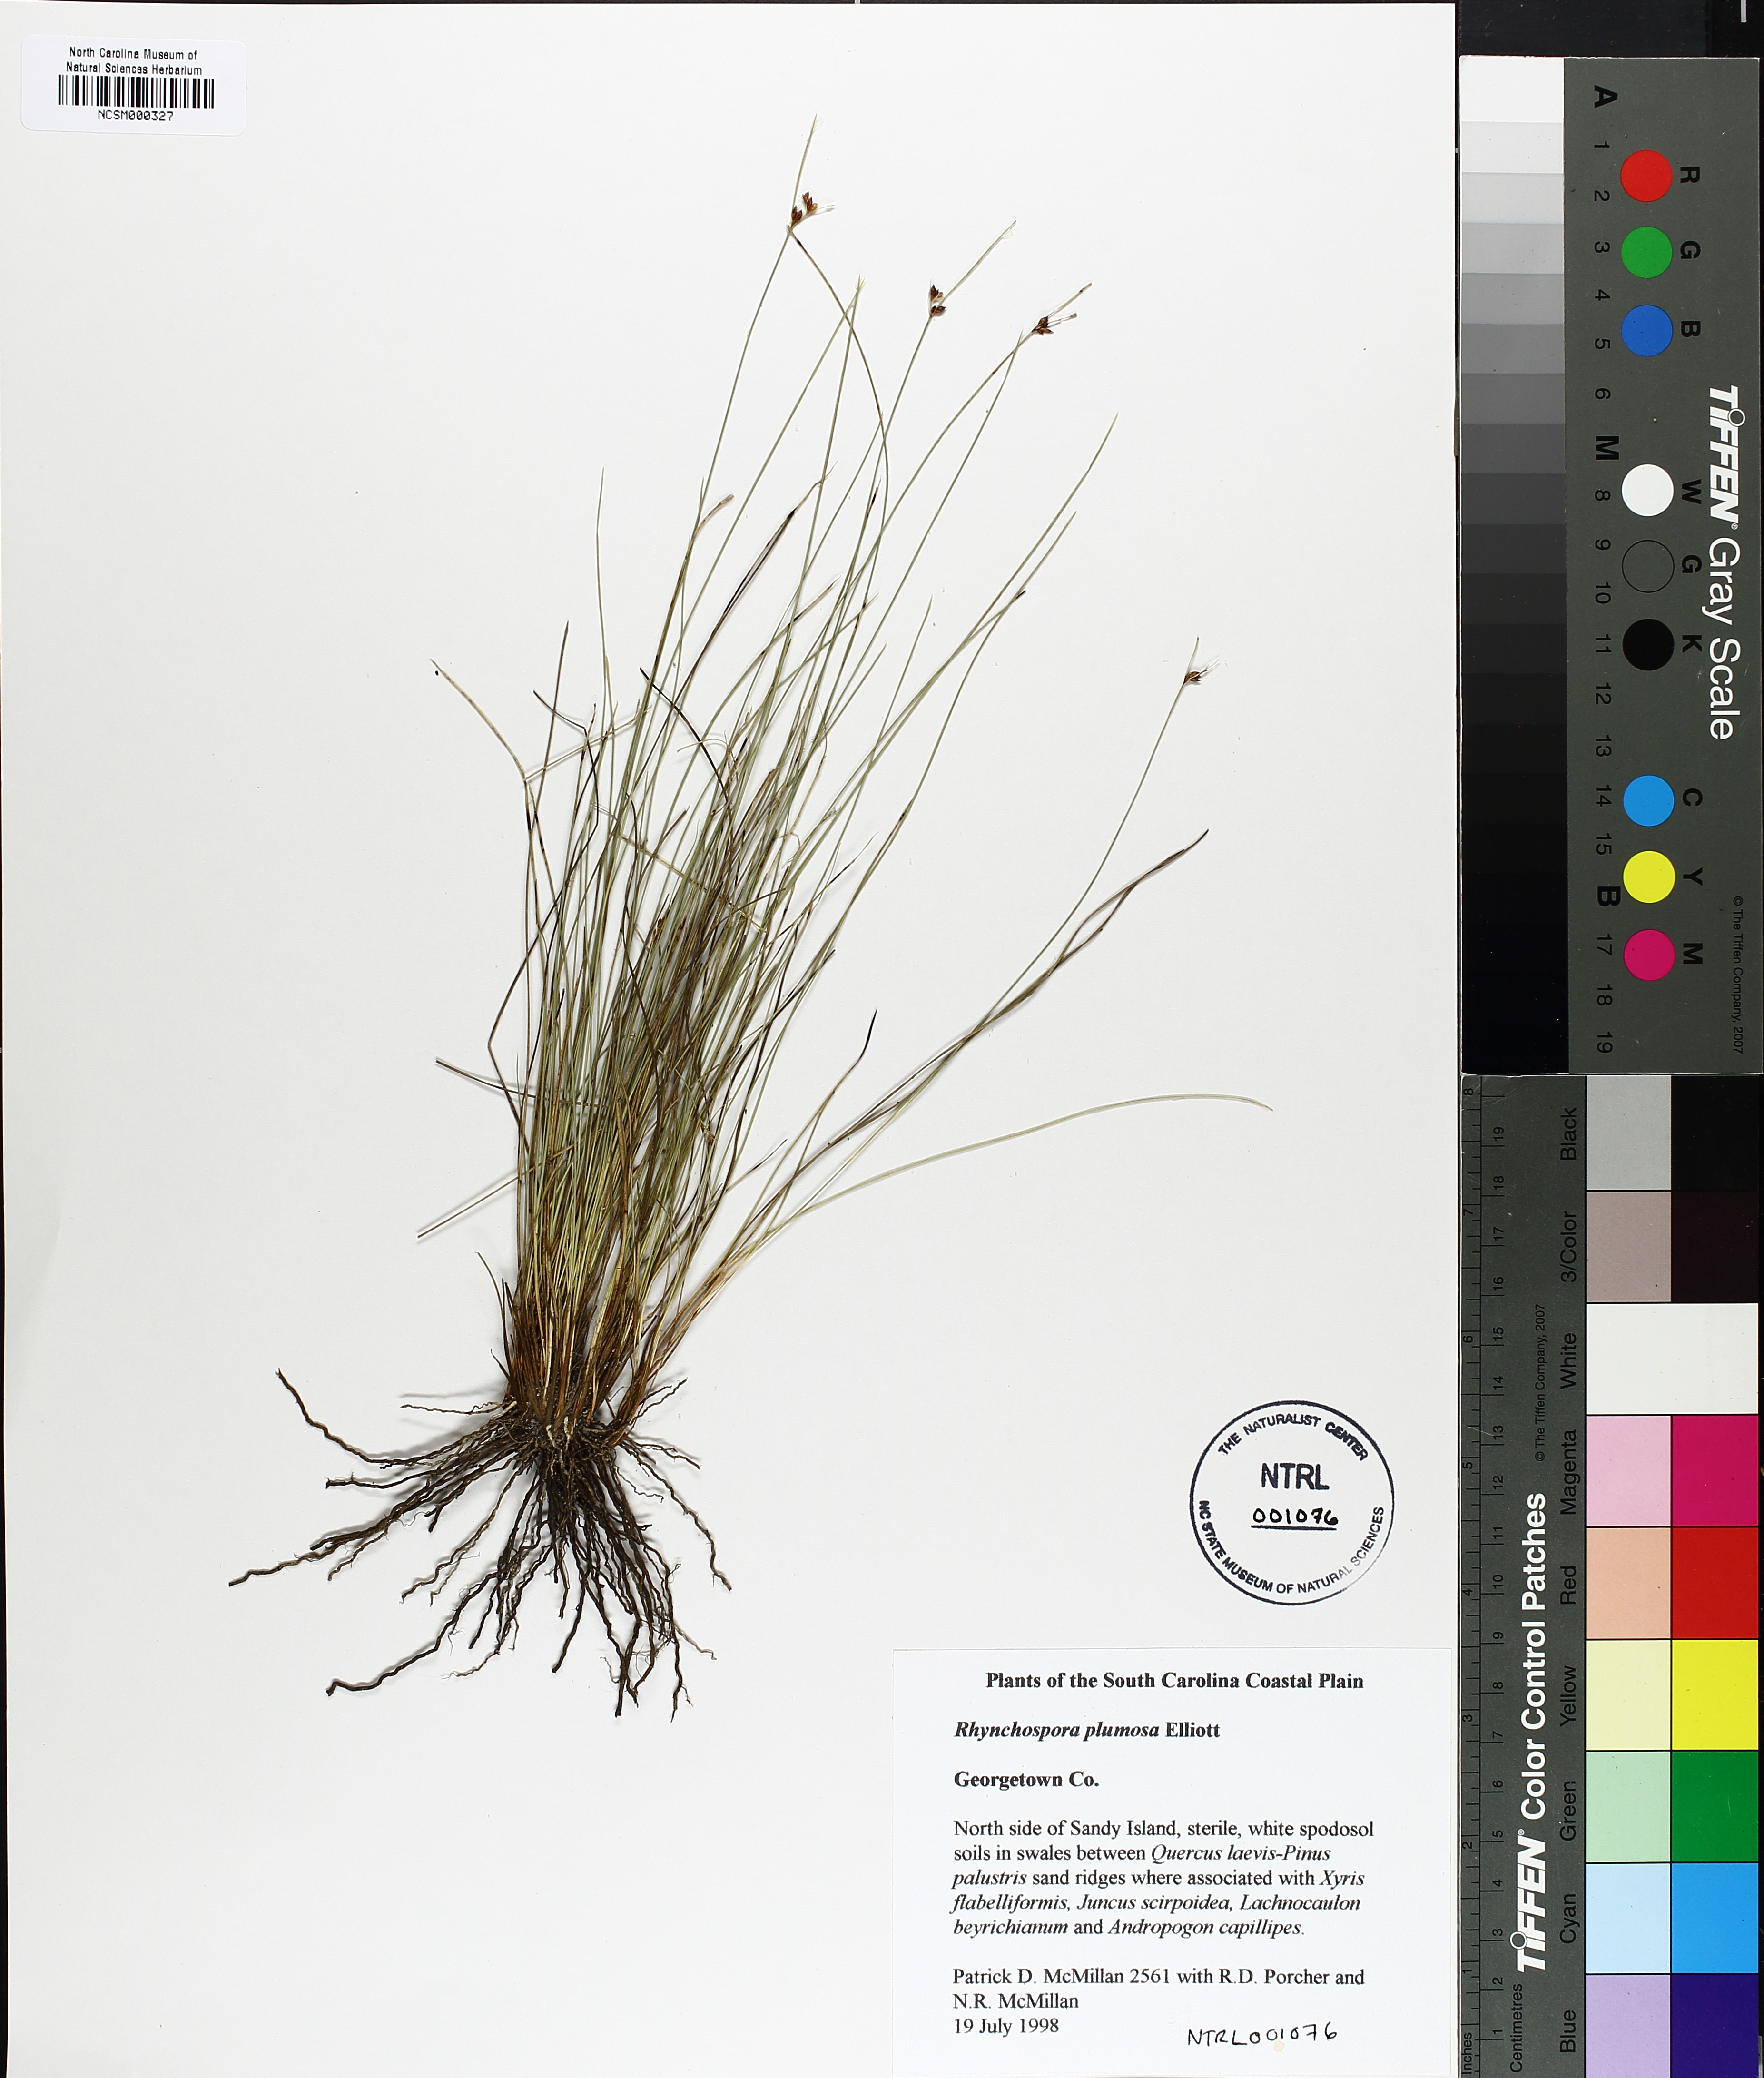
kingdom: Plantae
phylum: Tracheophyta
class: Liliopsida
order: Poales
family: Cyperaceae
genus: Rhynchospora
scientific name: Rhynchospora plumosa
